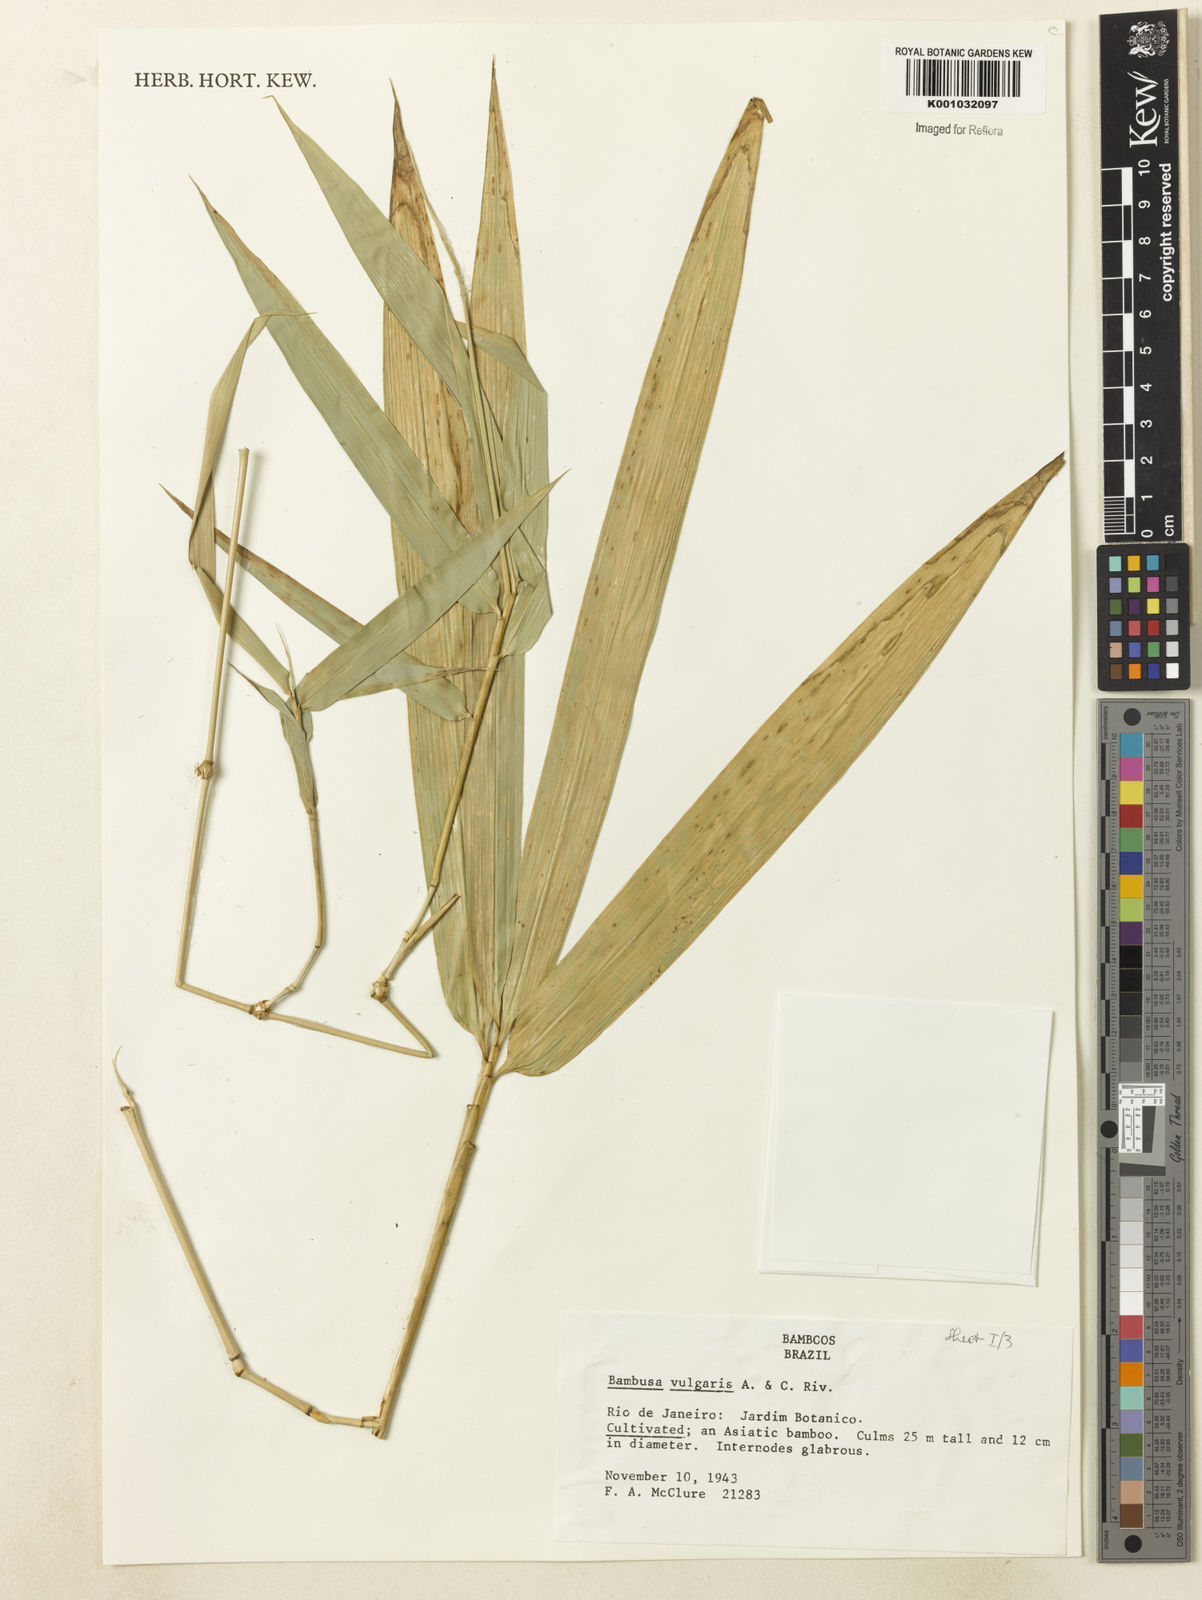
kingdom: Plantae
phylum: Tracheophyta
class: Liliopsida
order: Poales
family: Poaceae
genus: Bambusa
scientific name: Bambusa vulgaris
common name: Common bamboo
